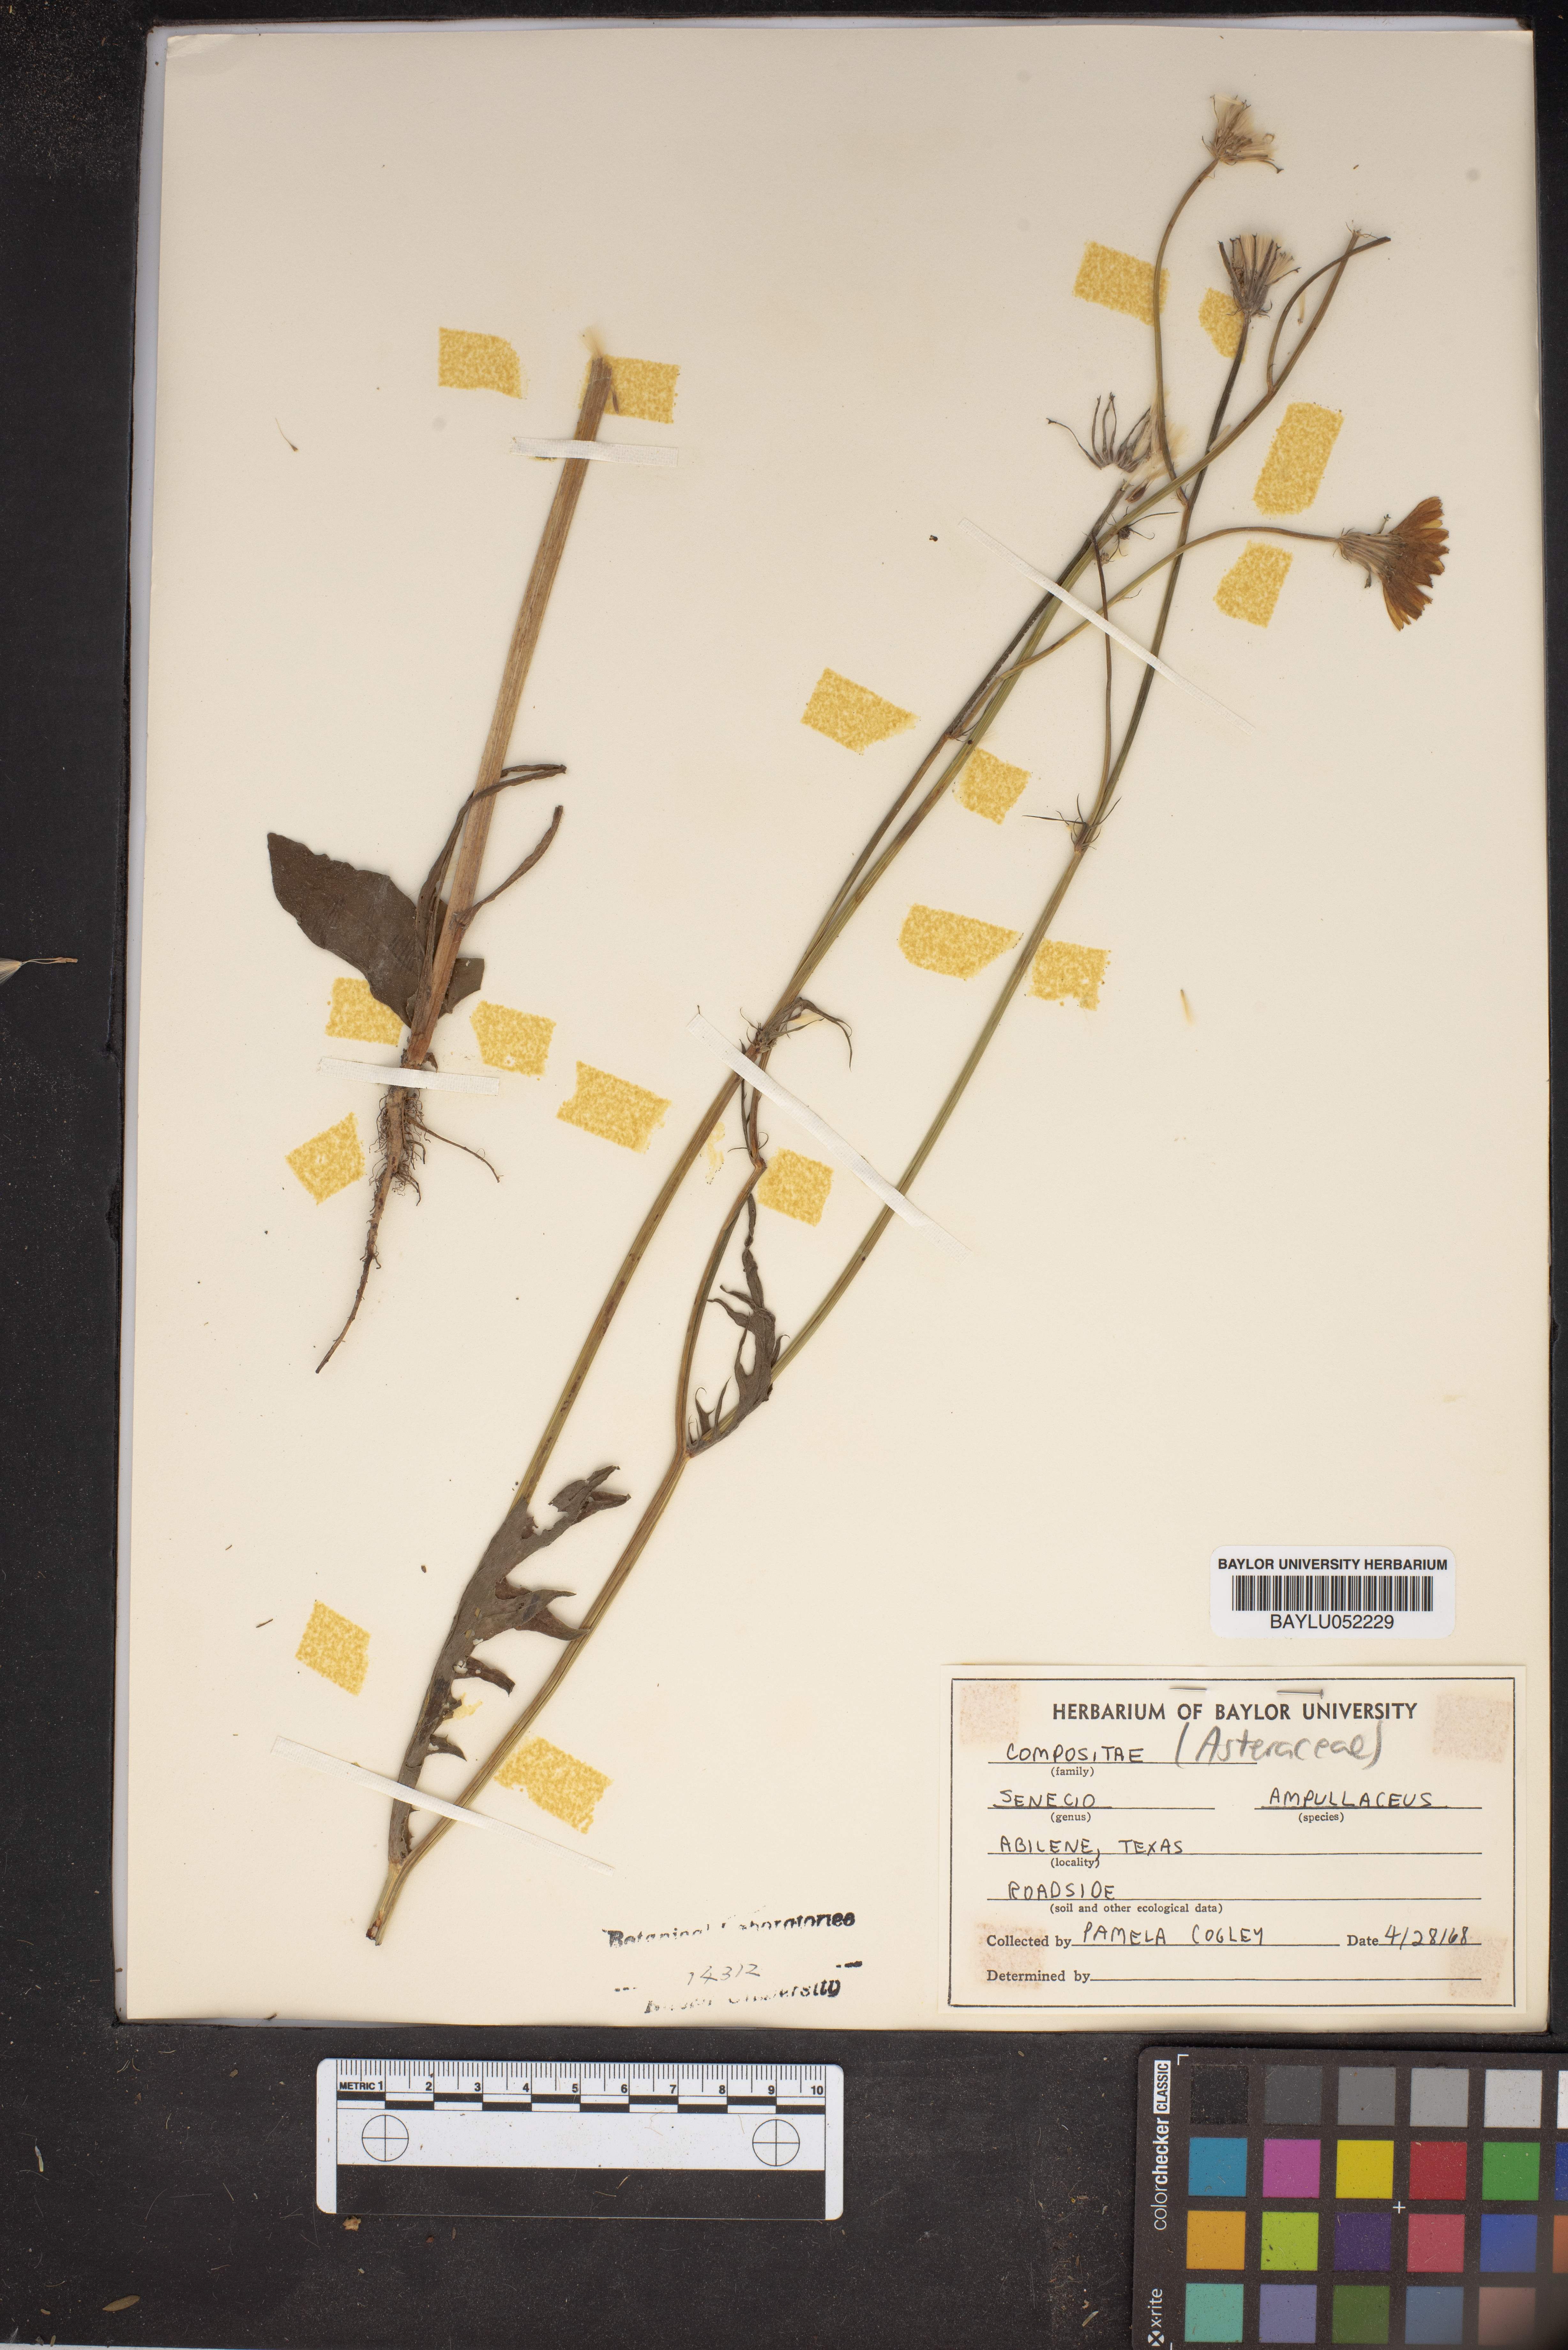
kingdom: Plantae
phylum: Tracheophyta
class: Magnoliopsida
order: Asterales
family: Asteraceae
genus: Senecio
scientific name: Senecio ampullaceus
